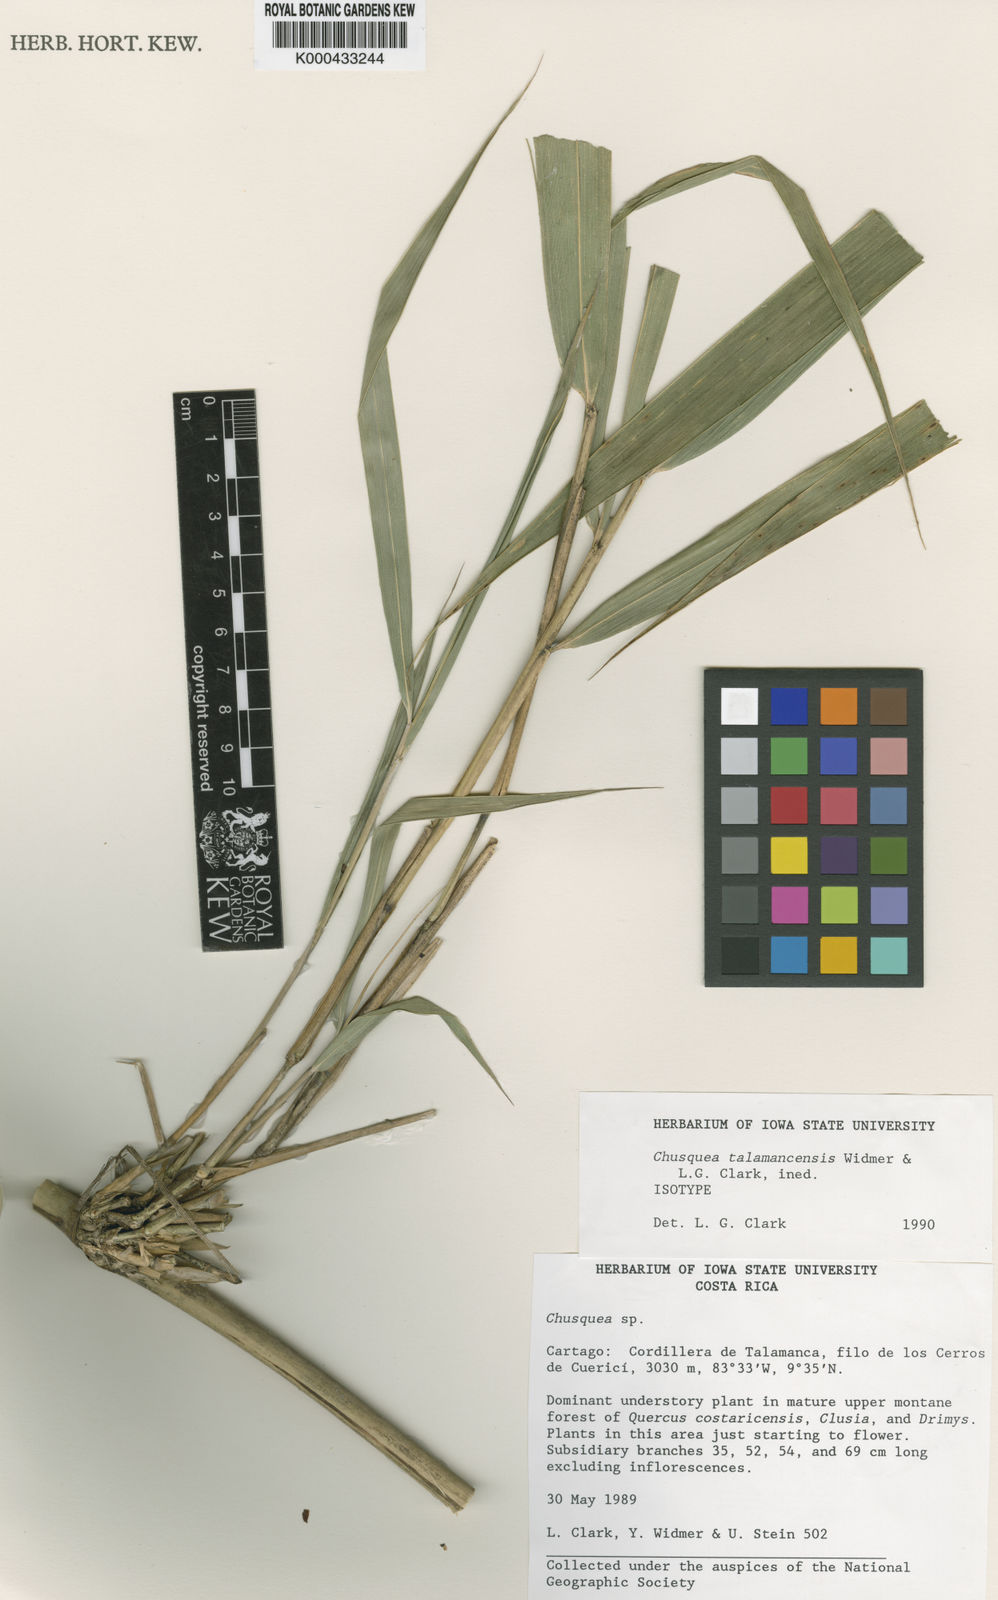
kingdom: Plantae
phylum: Tracheophyta
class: Liliopsida
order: Poales
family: Poaceae
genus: Chusquea
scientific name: Chusquea talamancensis
